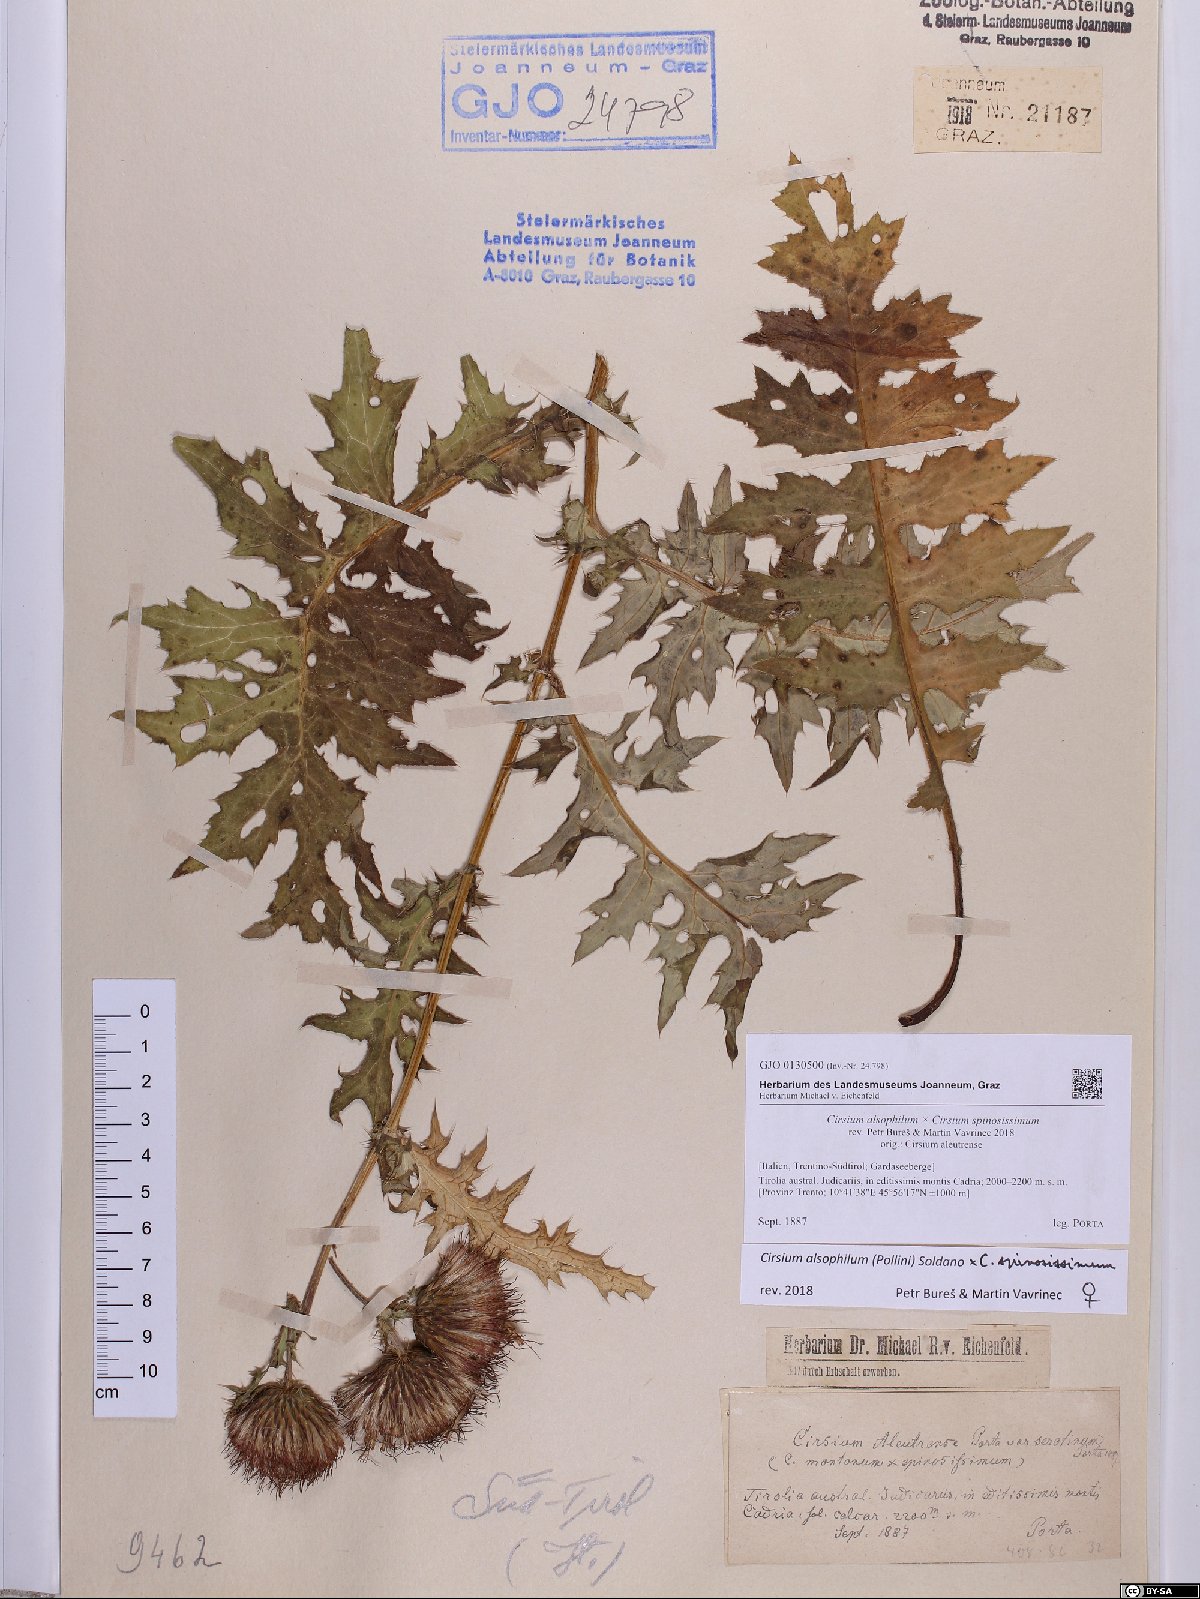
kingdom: Plantae
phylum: Tracheophyta
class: Magnoliopsida
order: Asterales
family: Asteraceae
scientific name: Asteraceae
